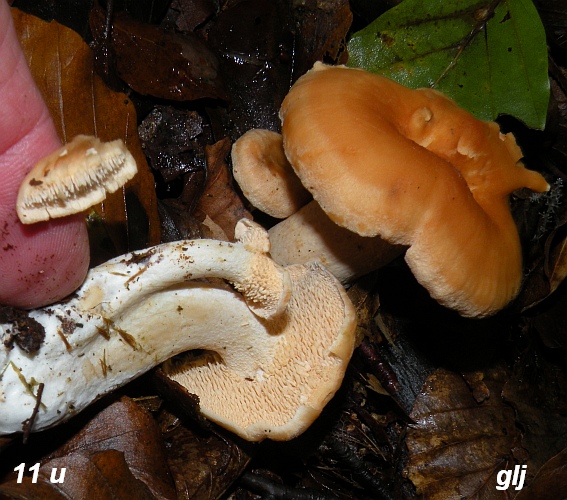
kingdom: Fungi
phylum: Basidiomycota
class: Agaricomycetes
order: Cantharellales
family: Hydnaceae
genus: Hydnum
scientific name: Hydnum rufescens
